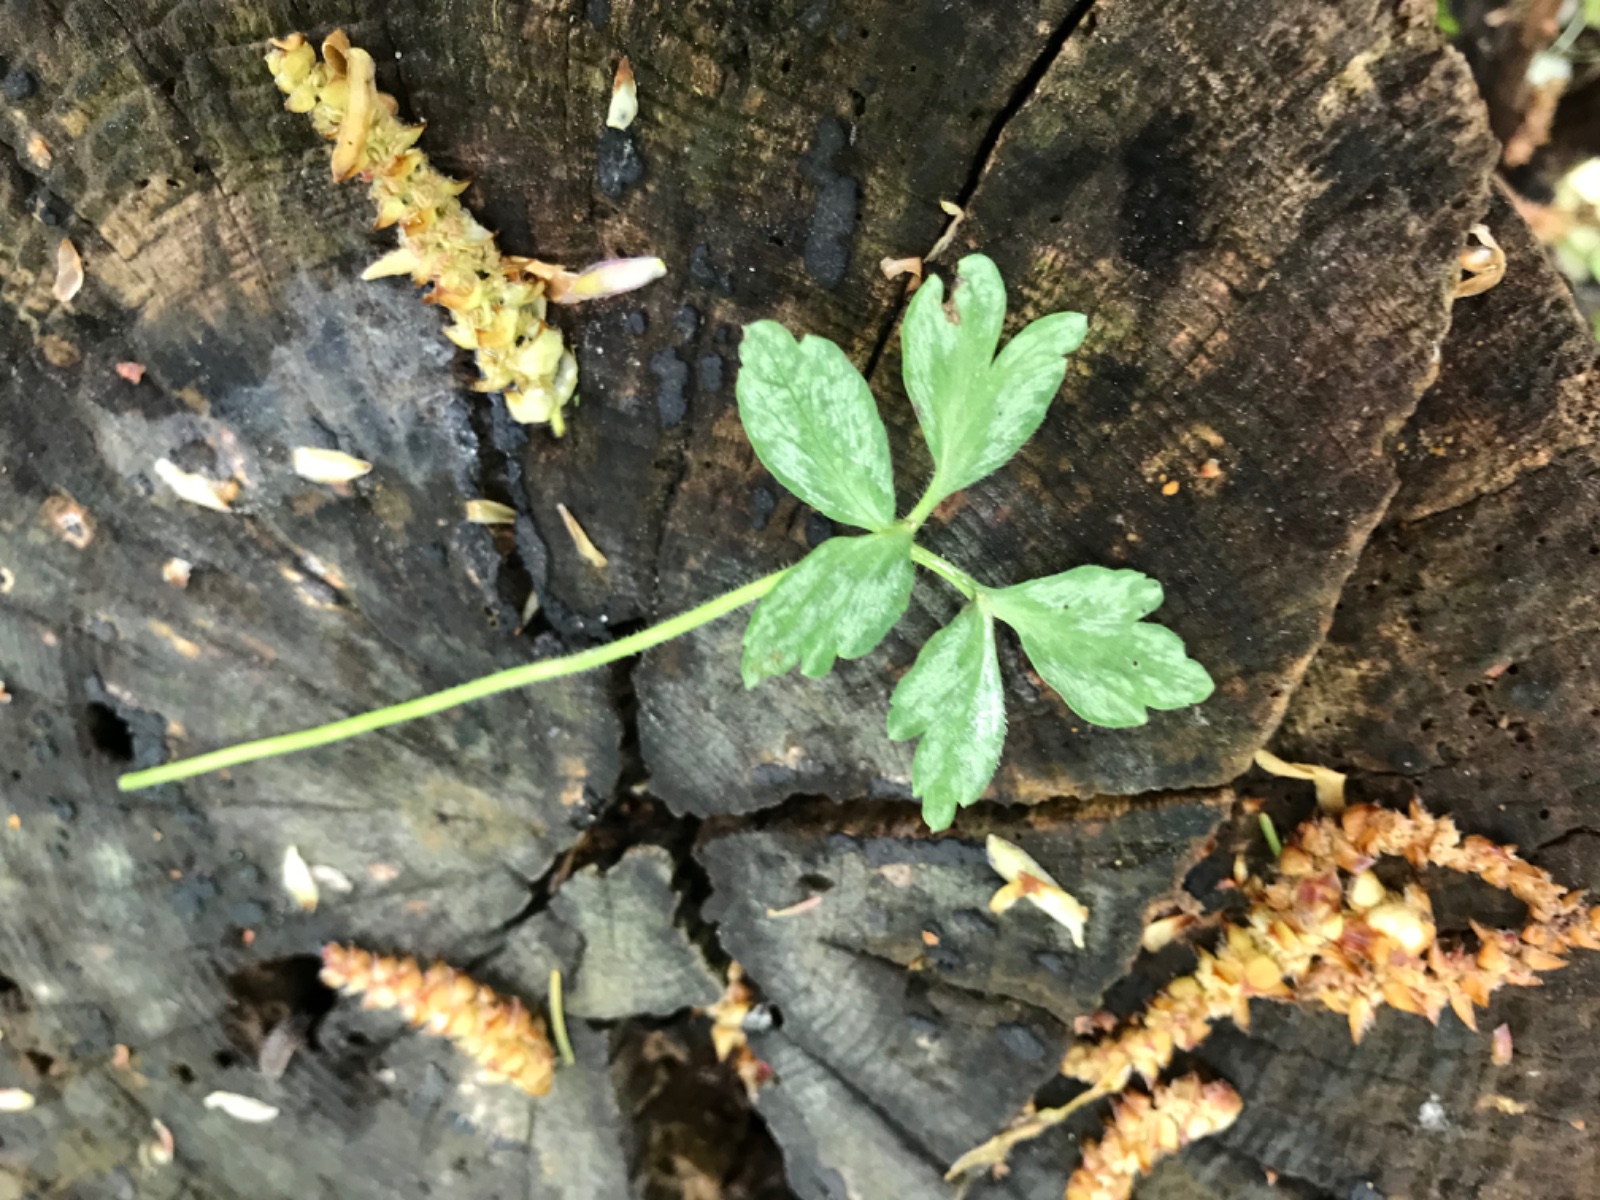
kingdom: Fungi
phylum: Basidiomycota
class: Pucciniomycetes
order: Pucciniales
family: Tranzscheliaceae
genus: Tranzschelia
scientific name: Tranzschelia anemones
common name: anemone-knæksporerust
